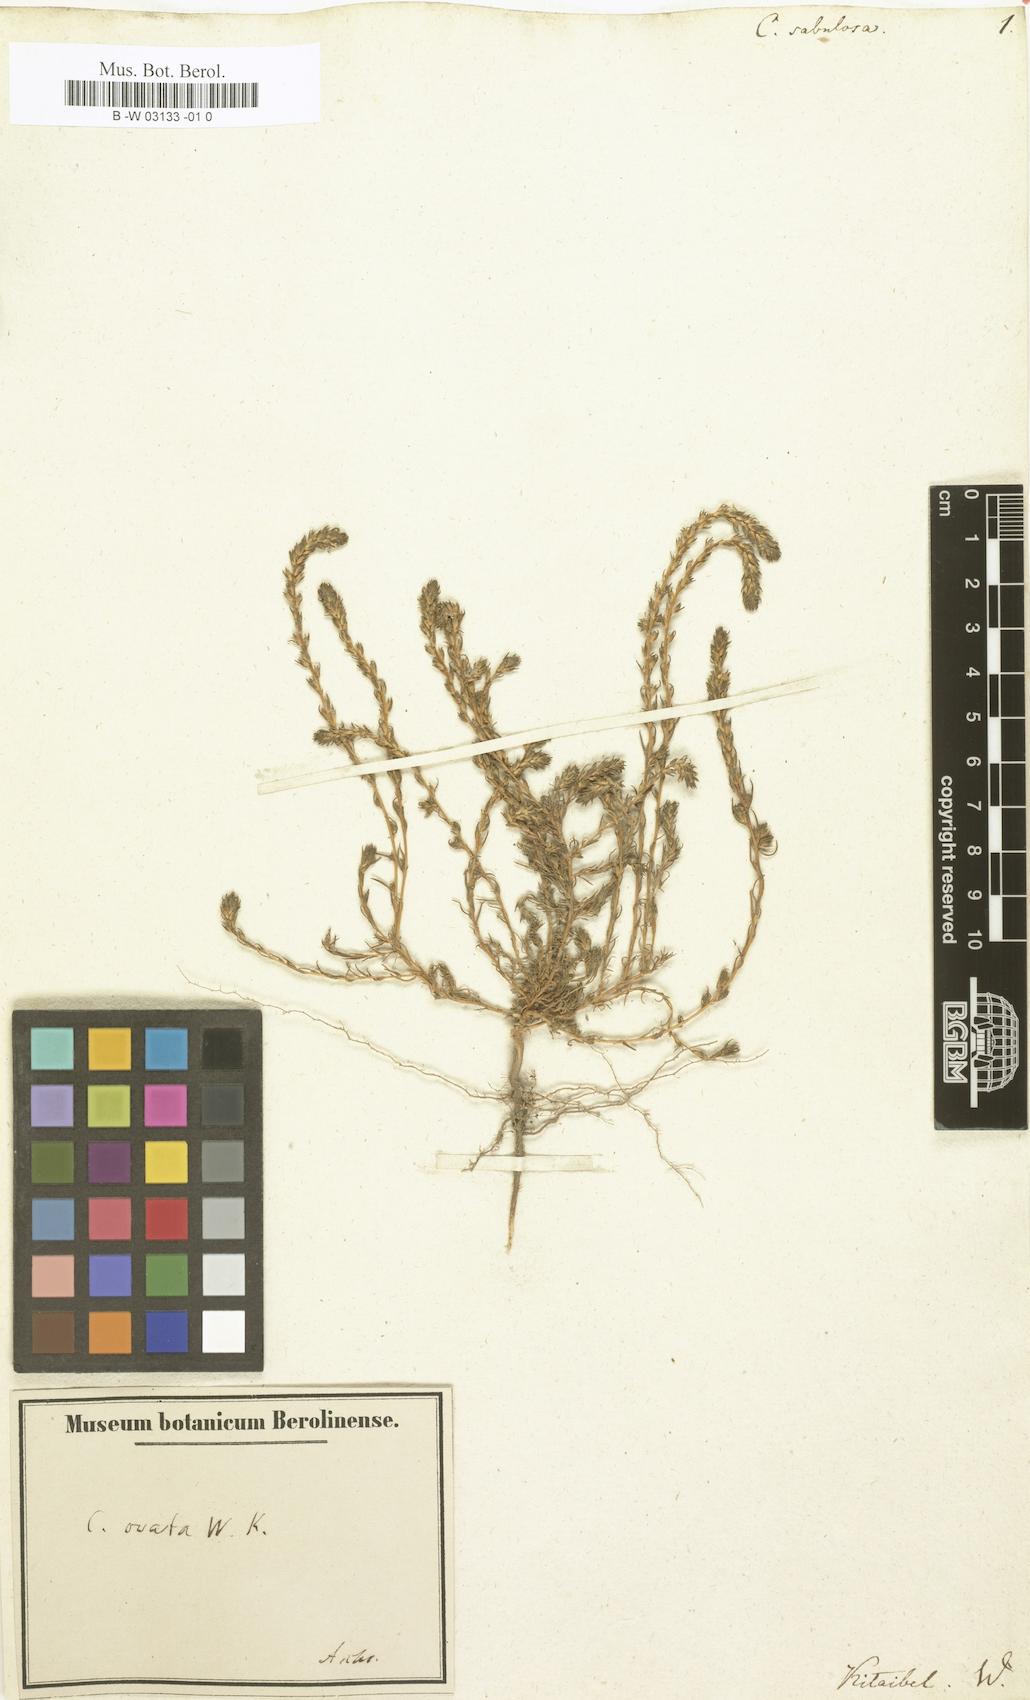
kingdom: Plantae
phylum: Tracheophyta
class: Magnoliopsida
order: Caryophyllales
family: Amaranthaceae
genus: Camphorosma
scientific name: Camphorosma annua
